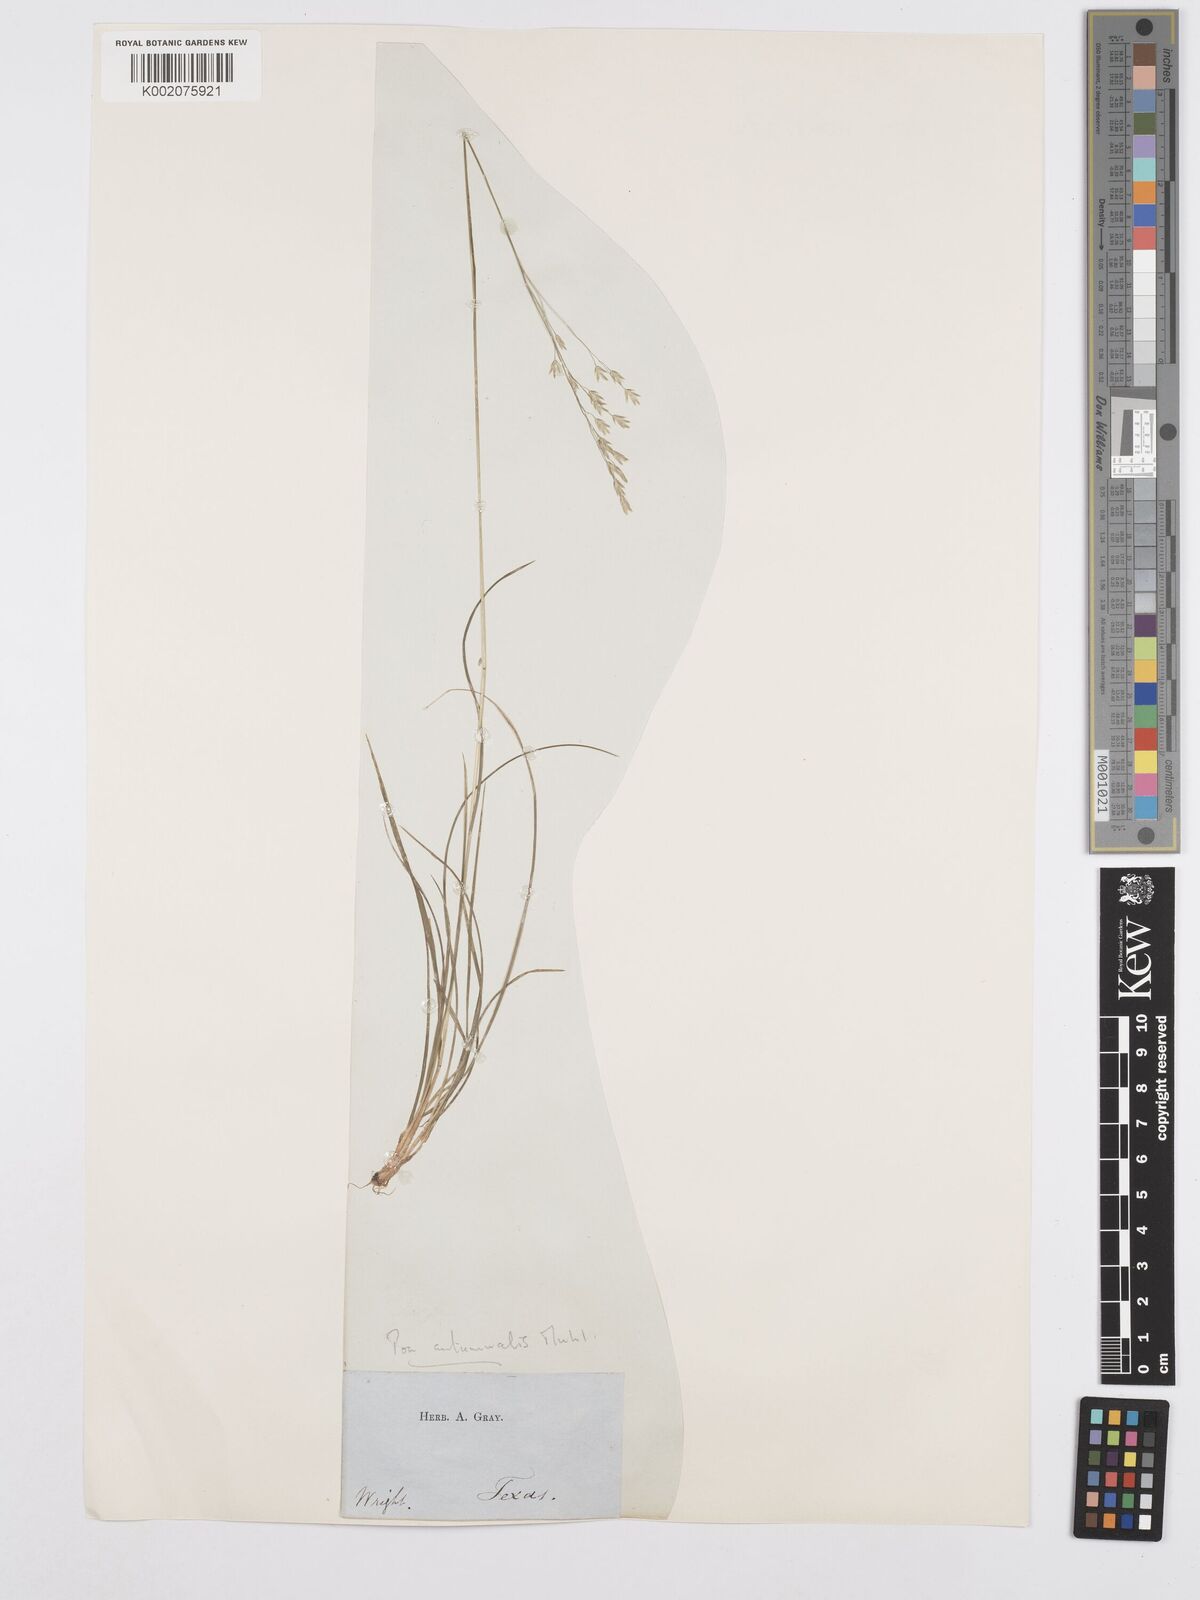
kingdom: Plantae
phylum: Tracheophyta
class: Liliopsida
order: Poales
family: Poaceae
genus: Poa
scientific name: Poa autumnalis
